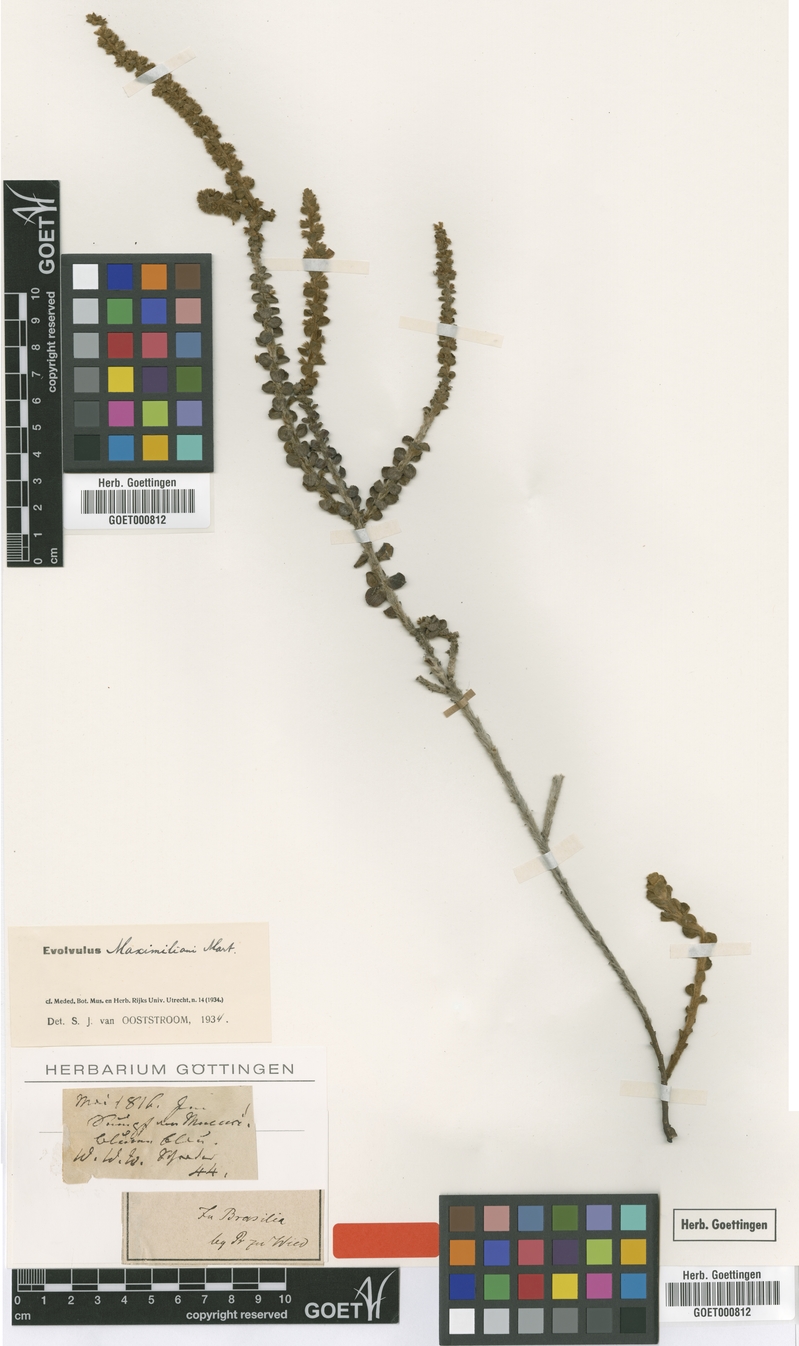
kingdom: Plantae
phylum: Tracheophyta
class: Magnoliopsida
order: Solanales
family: Convolvulaceae
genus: Evolvulus
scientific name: Evolvulus maximiliani
